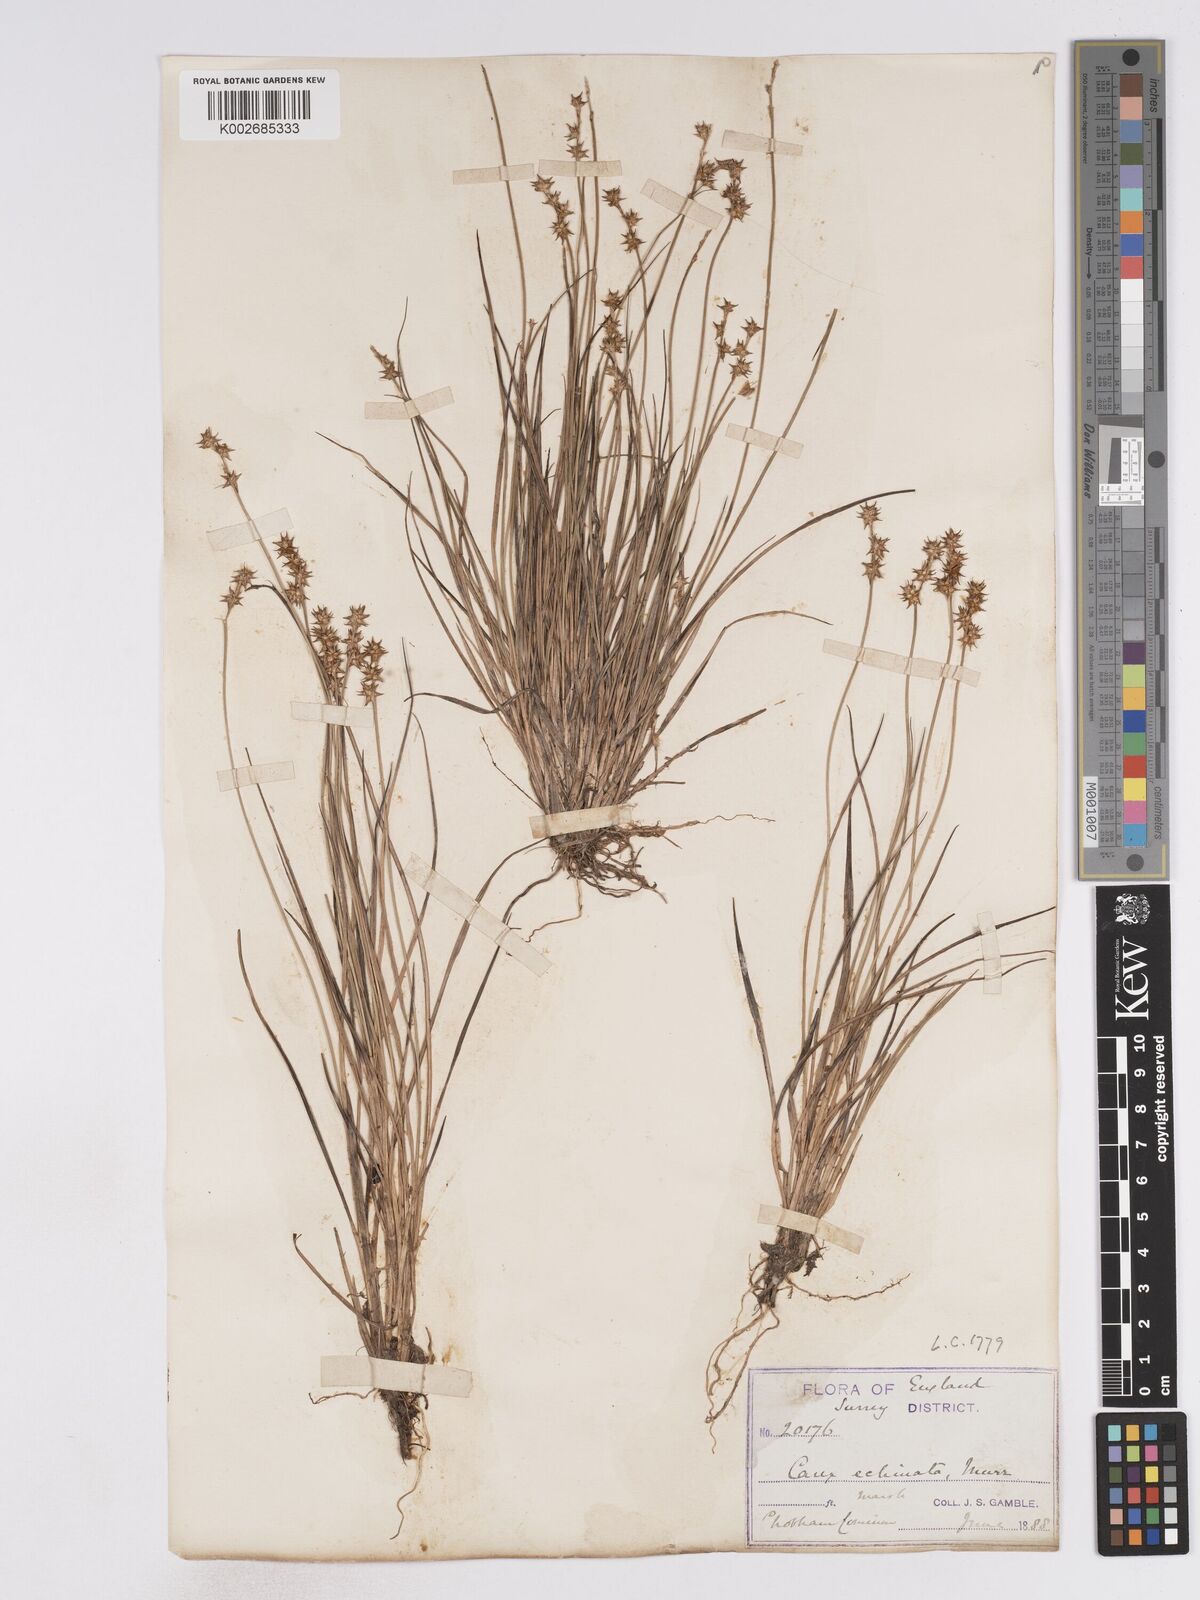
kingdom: Plantae
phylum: Tracheophyta
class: Liliopsida
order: Poales
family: Cyperaceae
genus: Carex
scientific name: Carex echinata
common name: Star sedge
